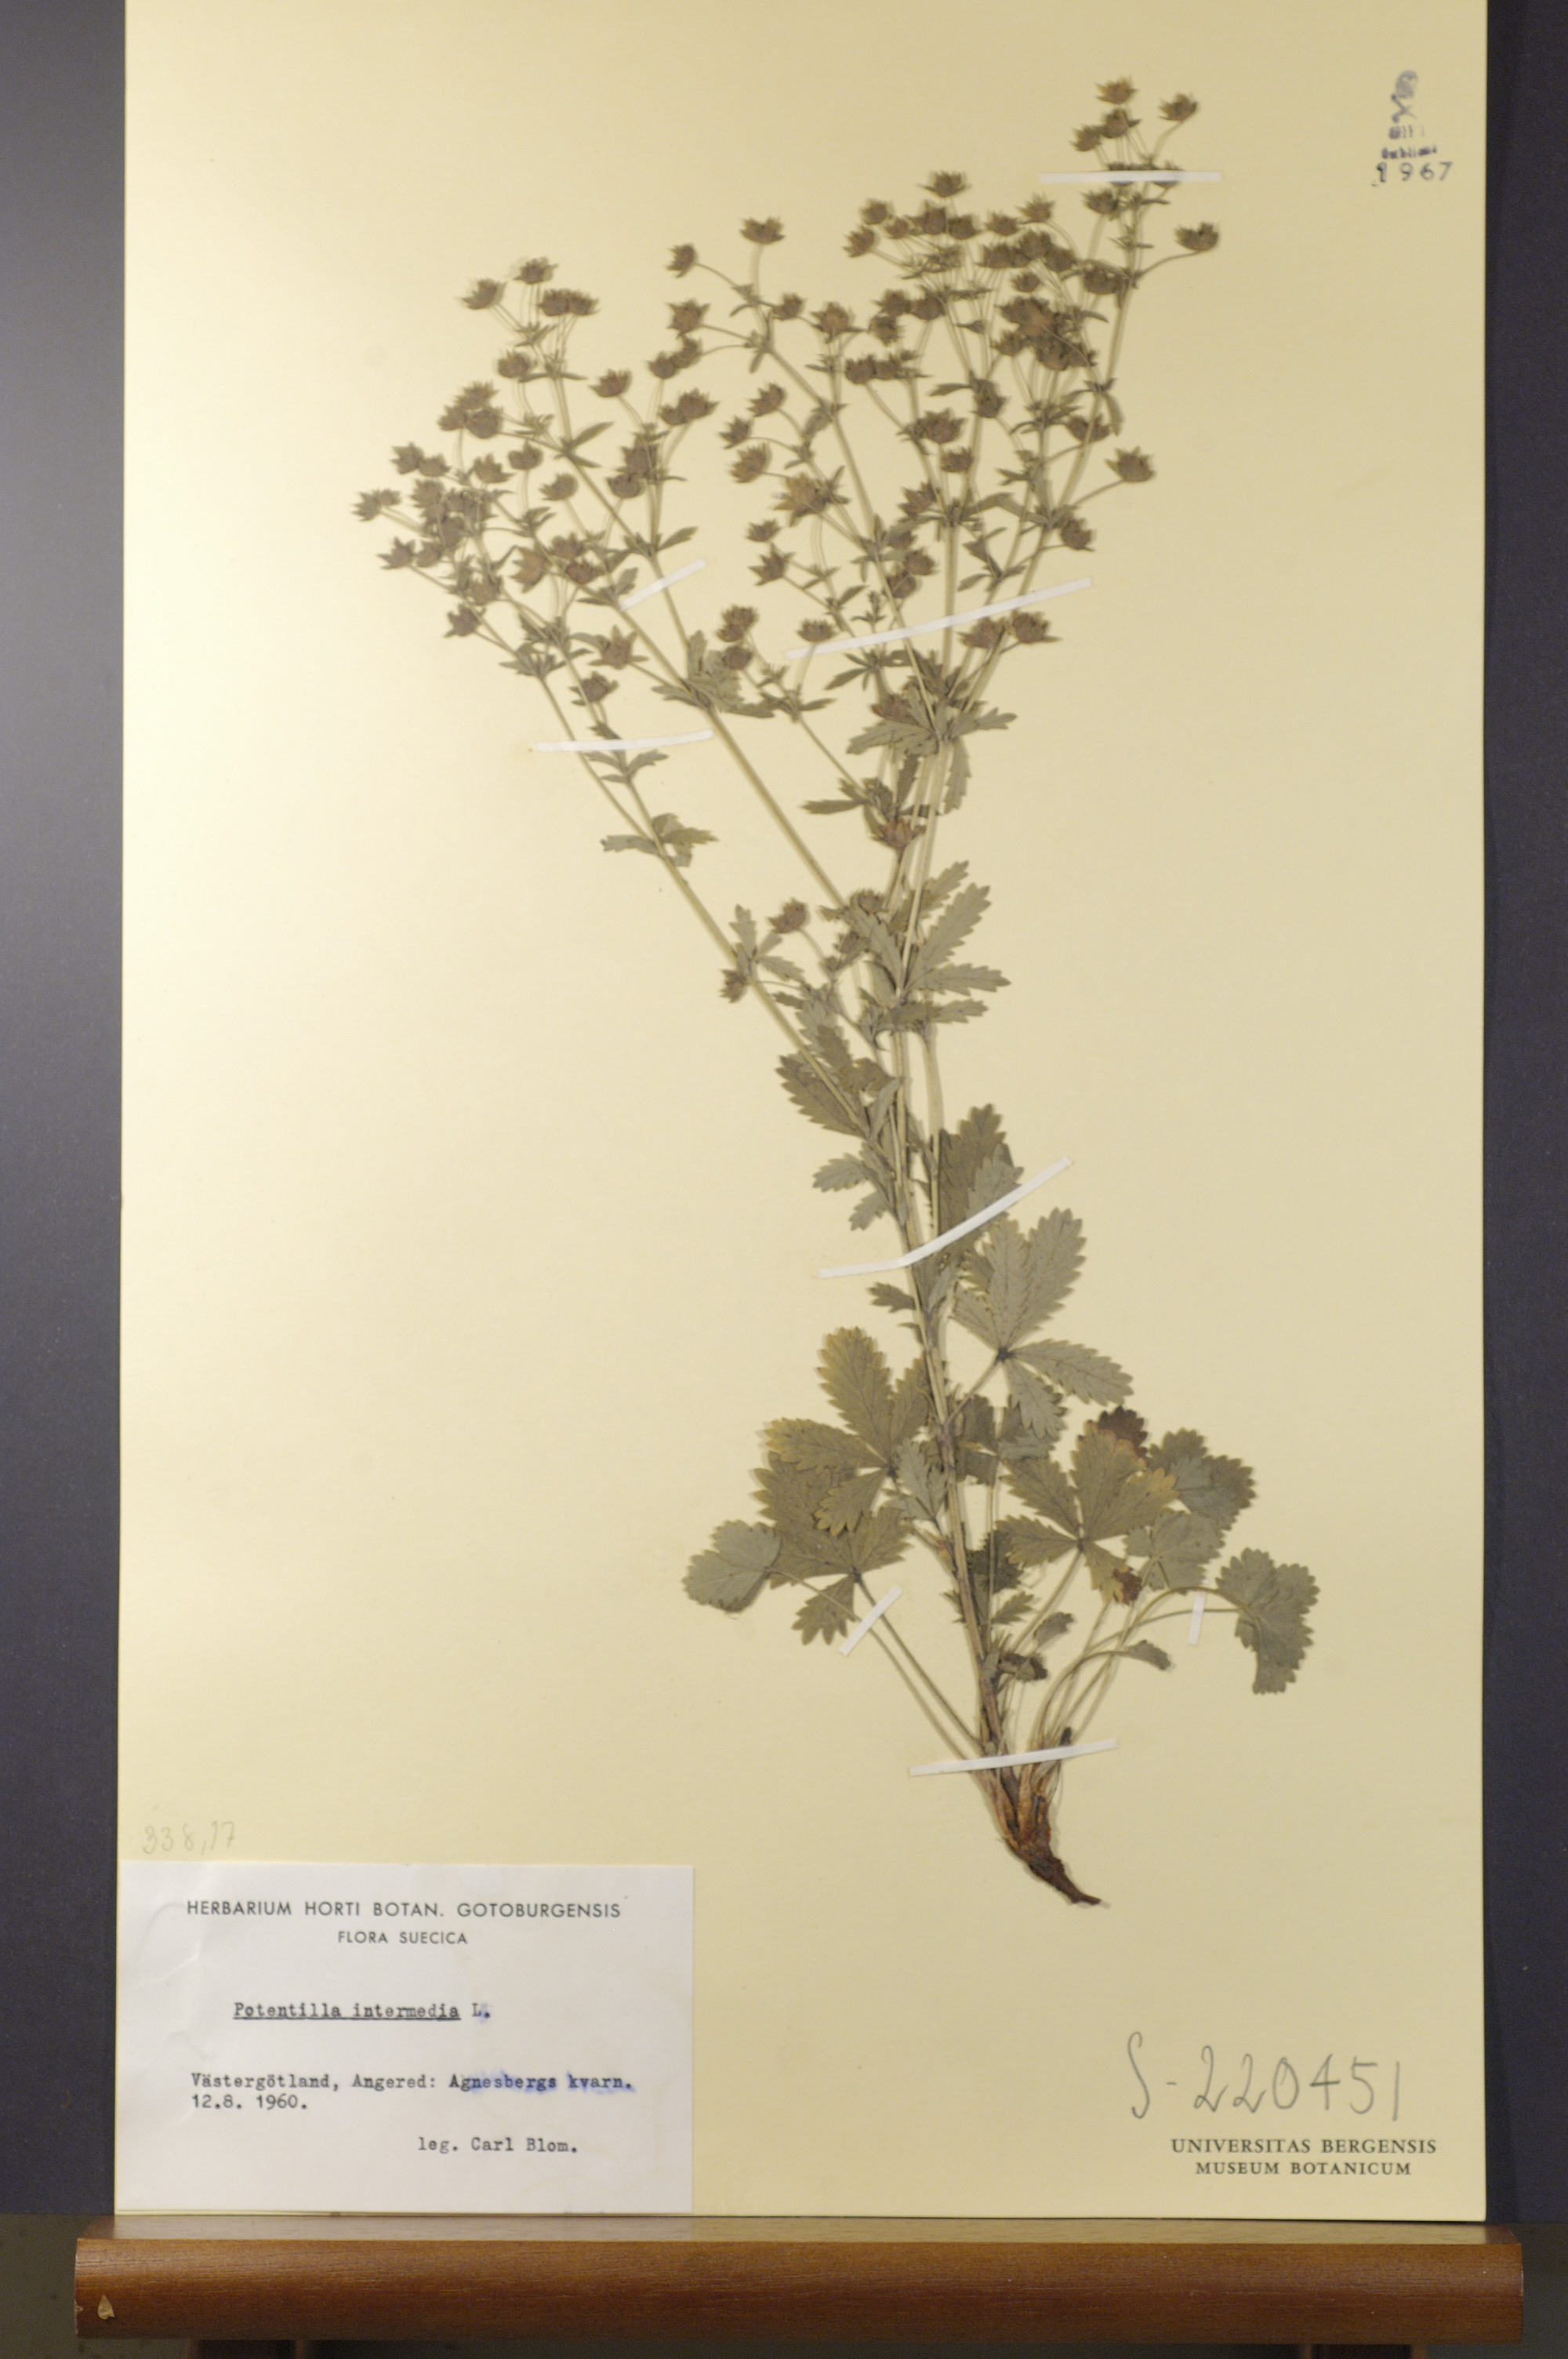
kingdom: Plantae
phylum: Tracheophyta
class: Magnoliopsida
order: Rosales
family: Rosaceae
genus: Potentilla
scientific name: Potentilla intermedia
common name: Downy cinquefoil
